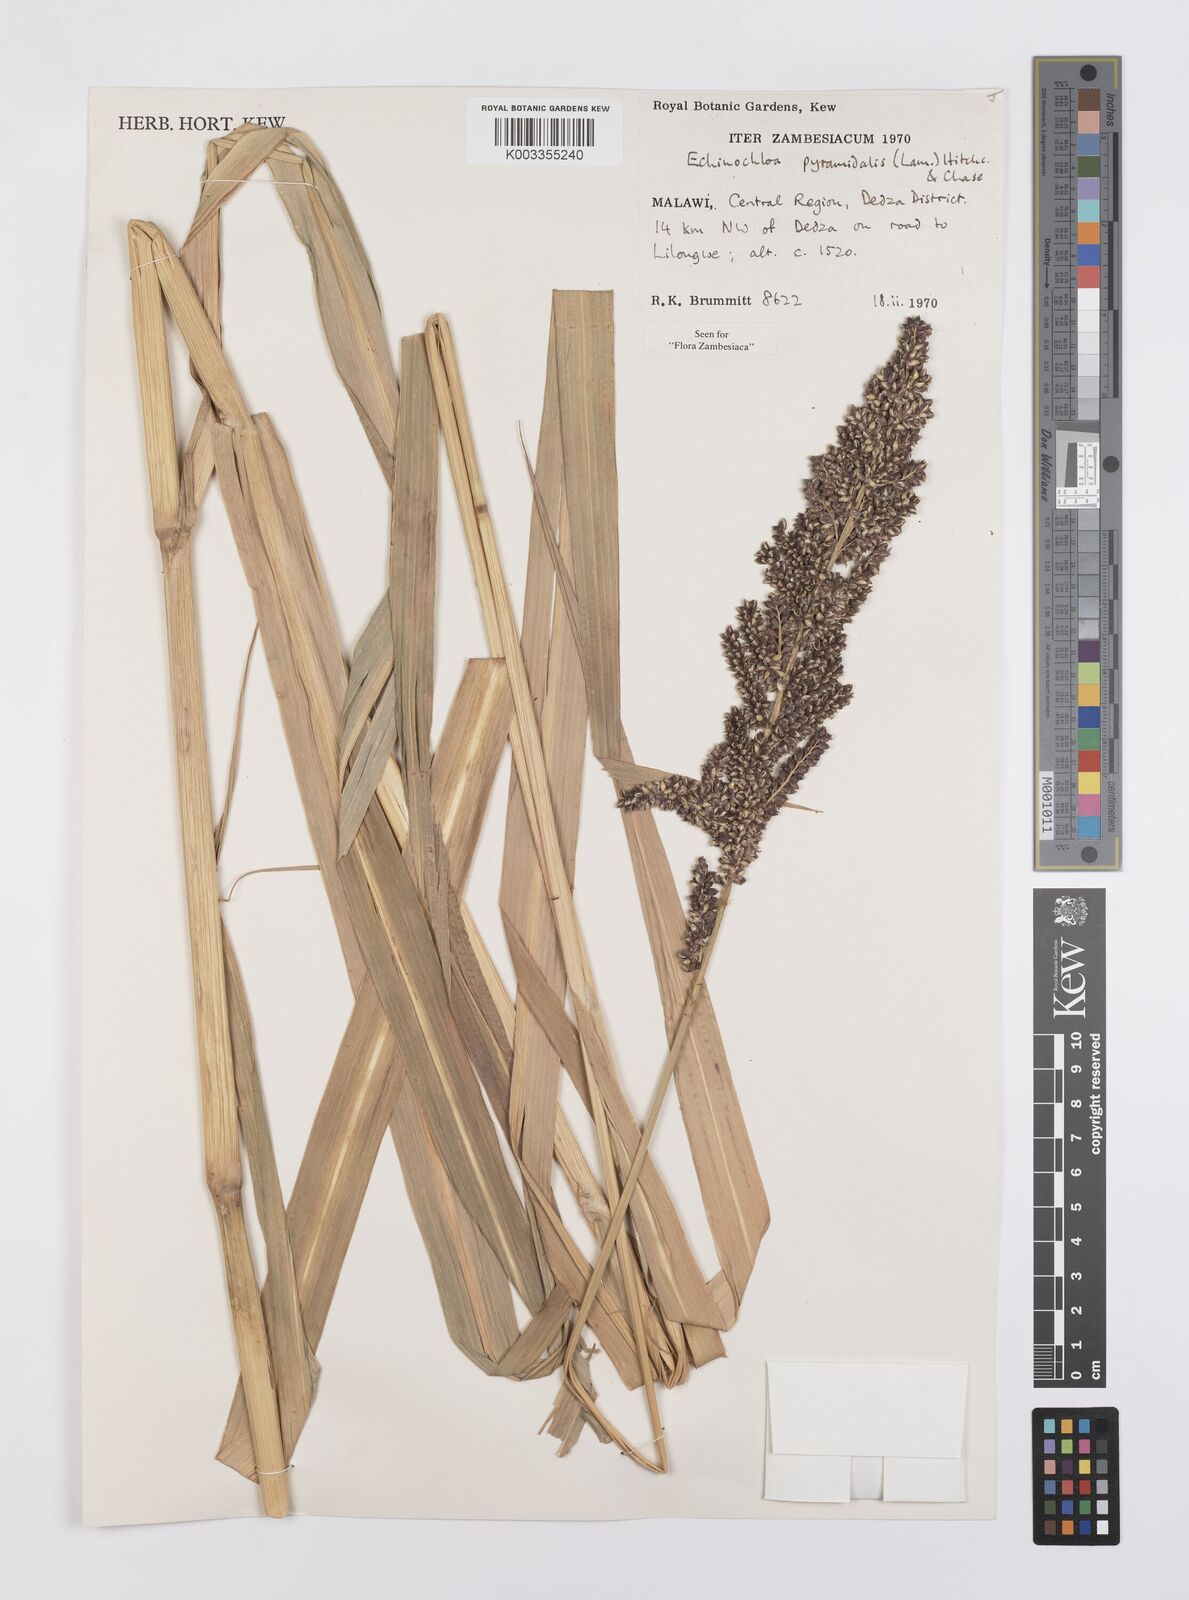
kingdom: Plantae
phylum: Tracheophyta
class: Liliopsida
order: Poales
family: Poaceae
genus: Echinochloa
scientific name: Echinochloa pyramidalis
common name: Antelope grass
